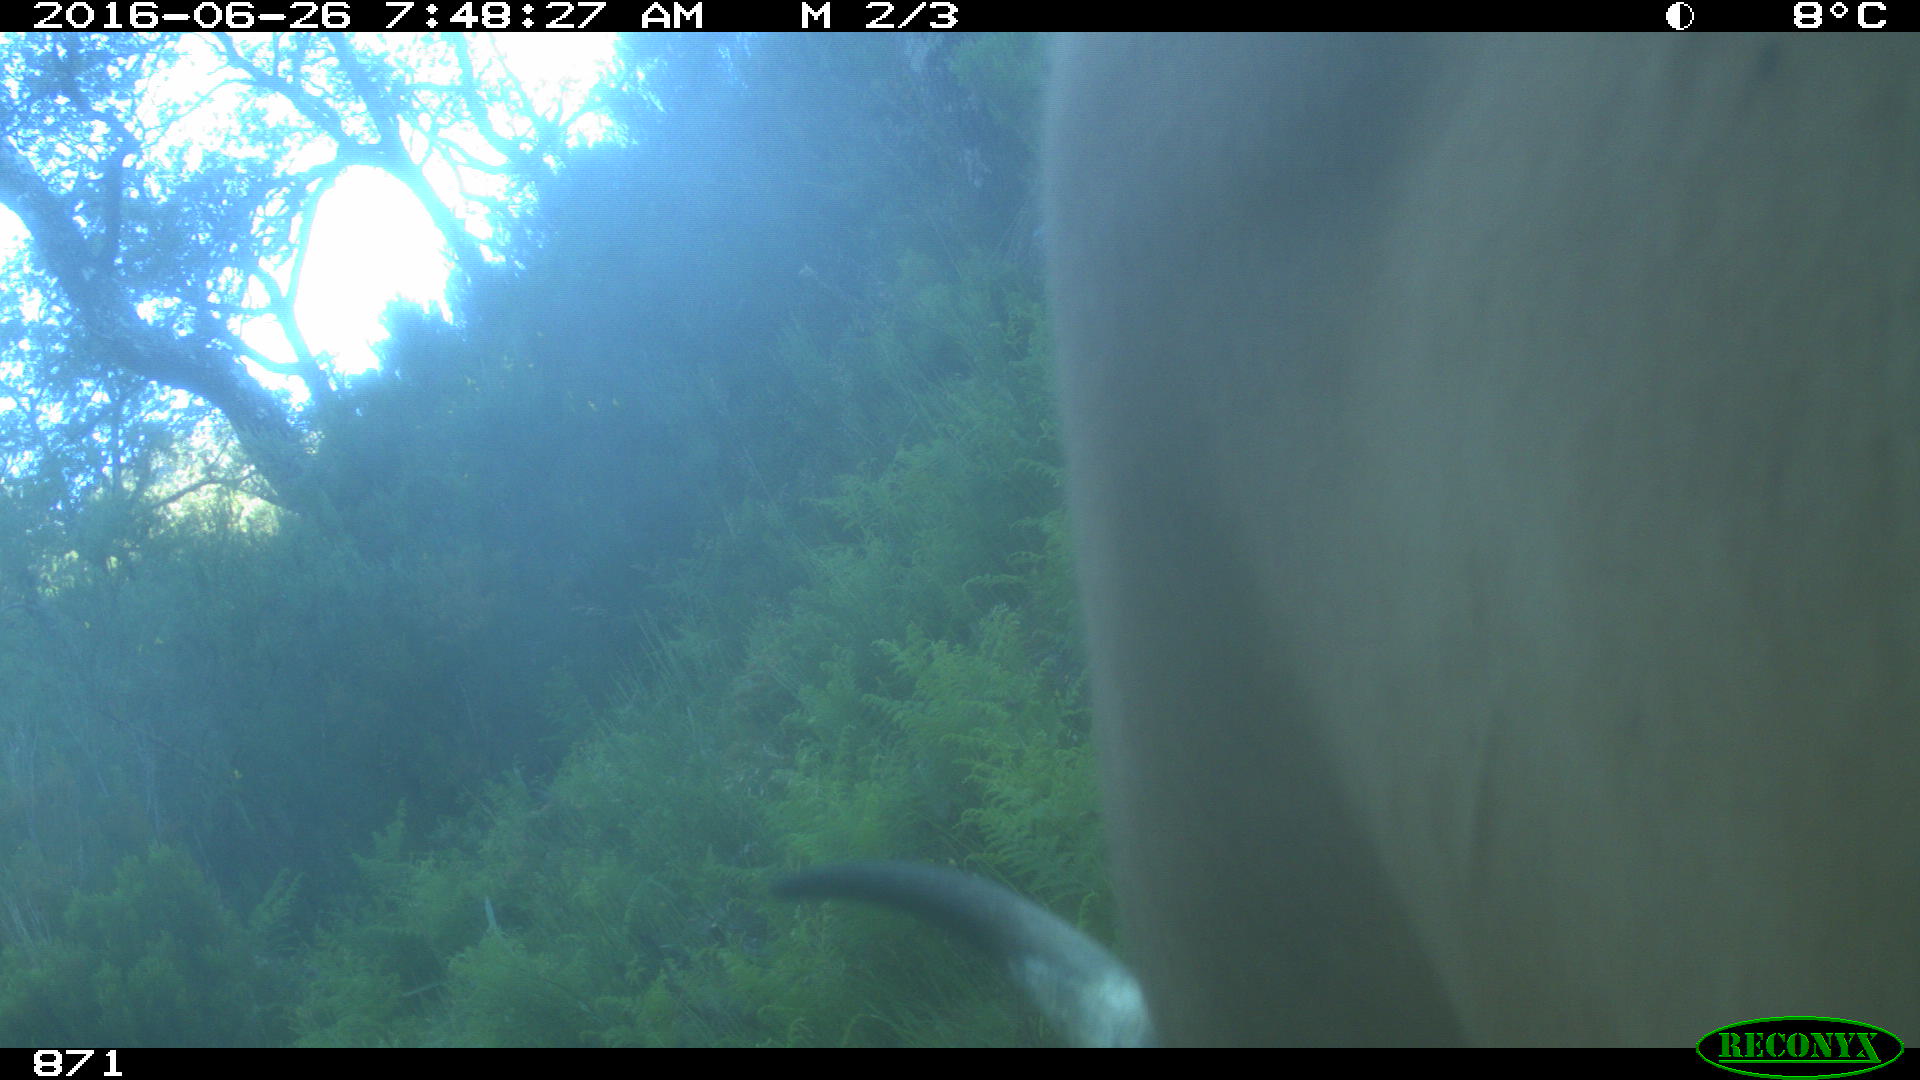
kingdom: Animalia
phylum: Chordata
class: Mammalia
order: Artiodactyla
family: Bovidae
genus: Bos
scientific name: Bos taurus
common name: Domesticated cattle
